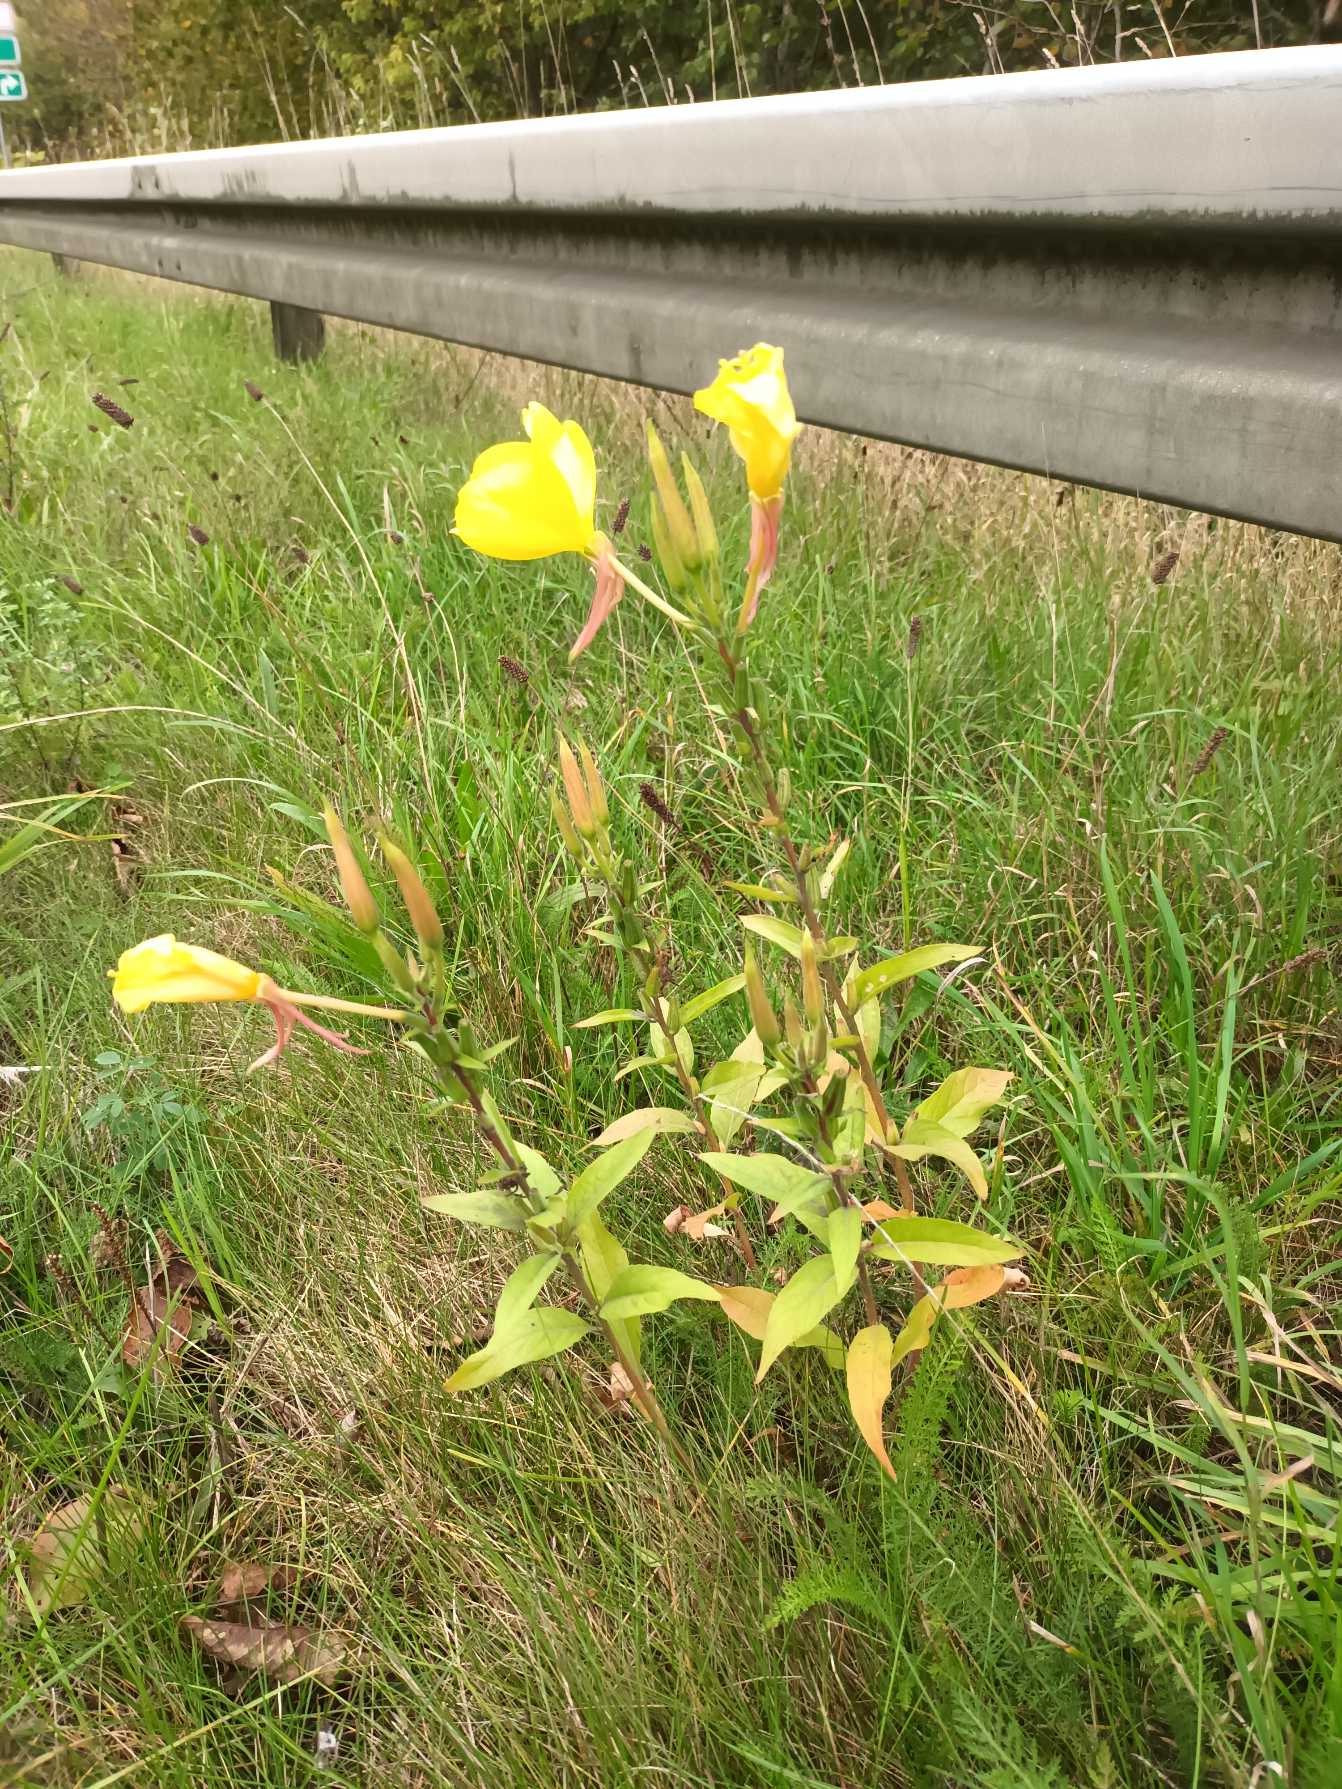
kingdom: Plantae
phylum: Tracheophyta
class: Magnoliopsida
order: Myrtales
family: Onagraceae
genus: Oenothera
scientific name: Oenothera glazioviana
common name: Kæmpe-natlys
